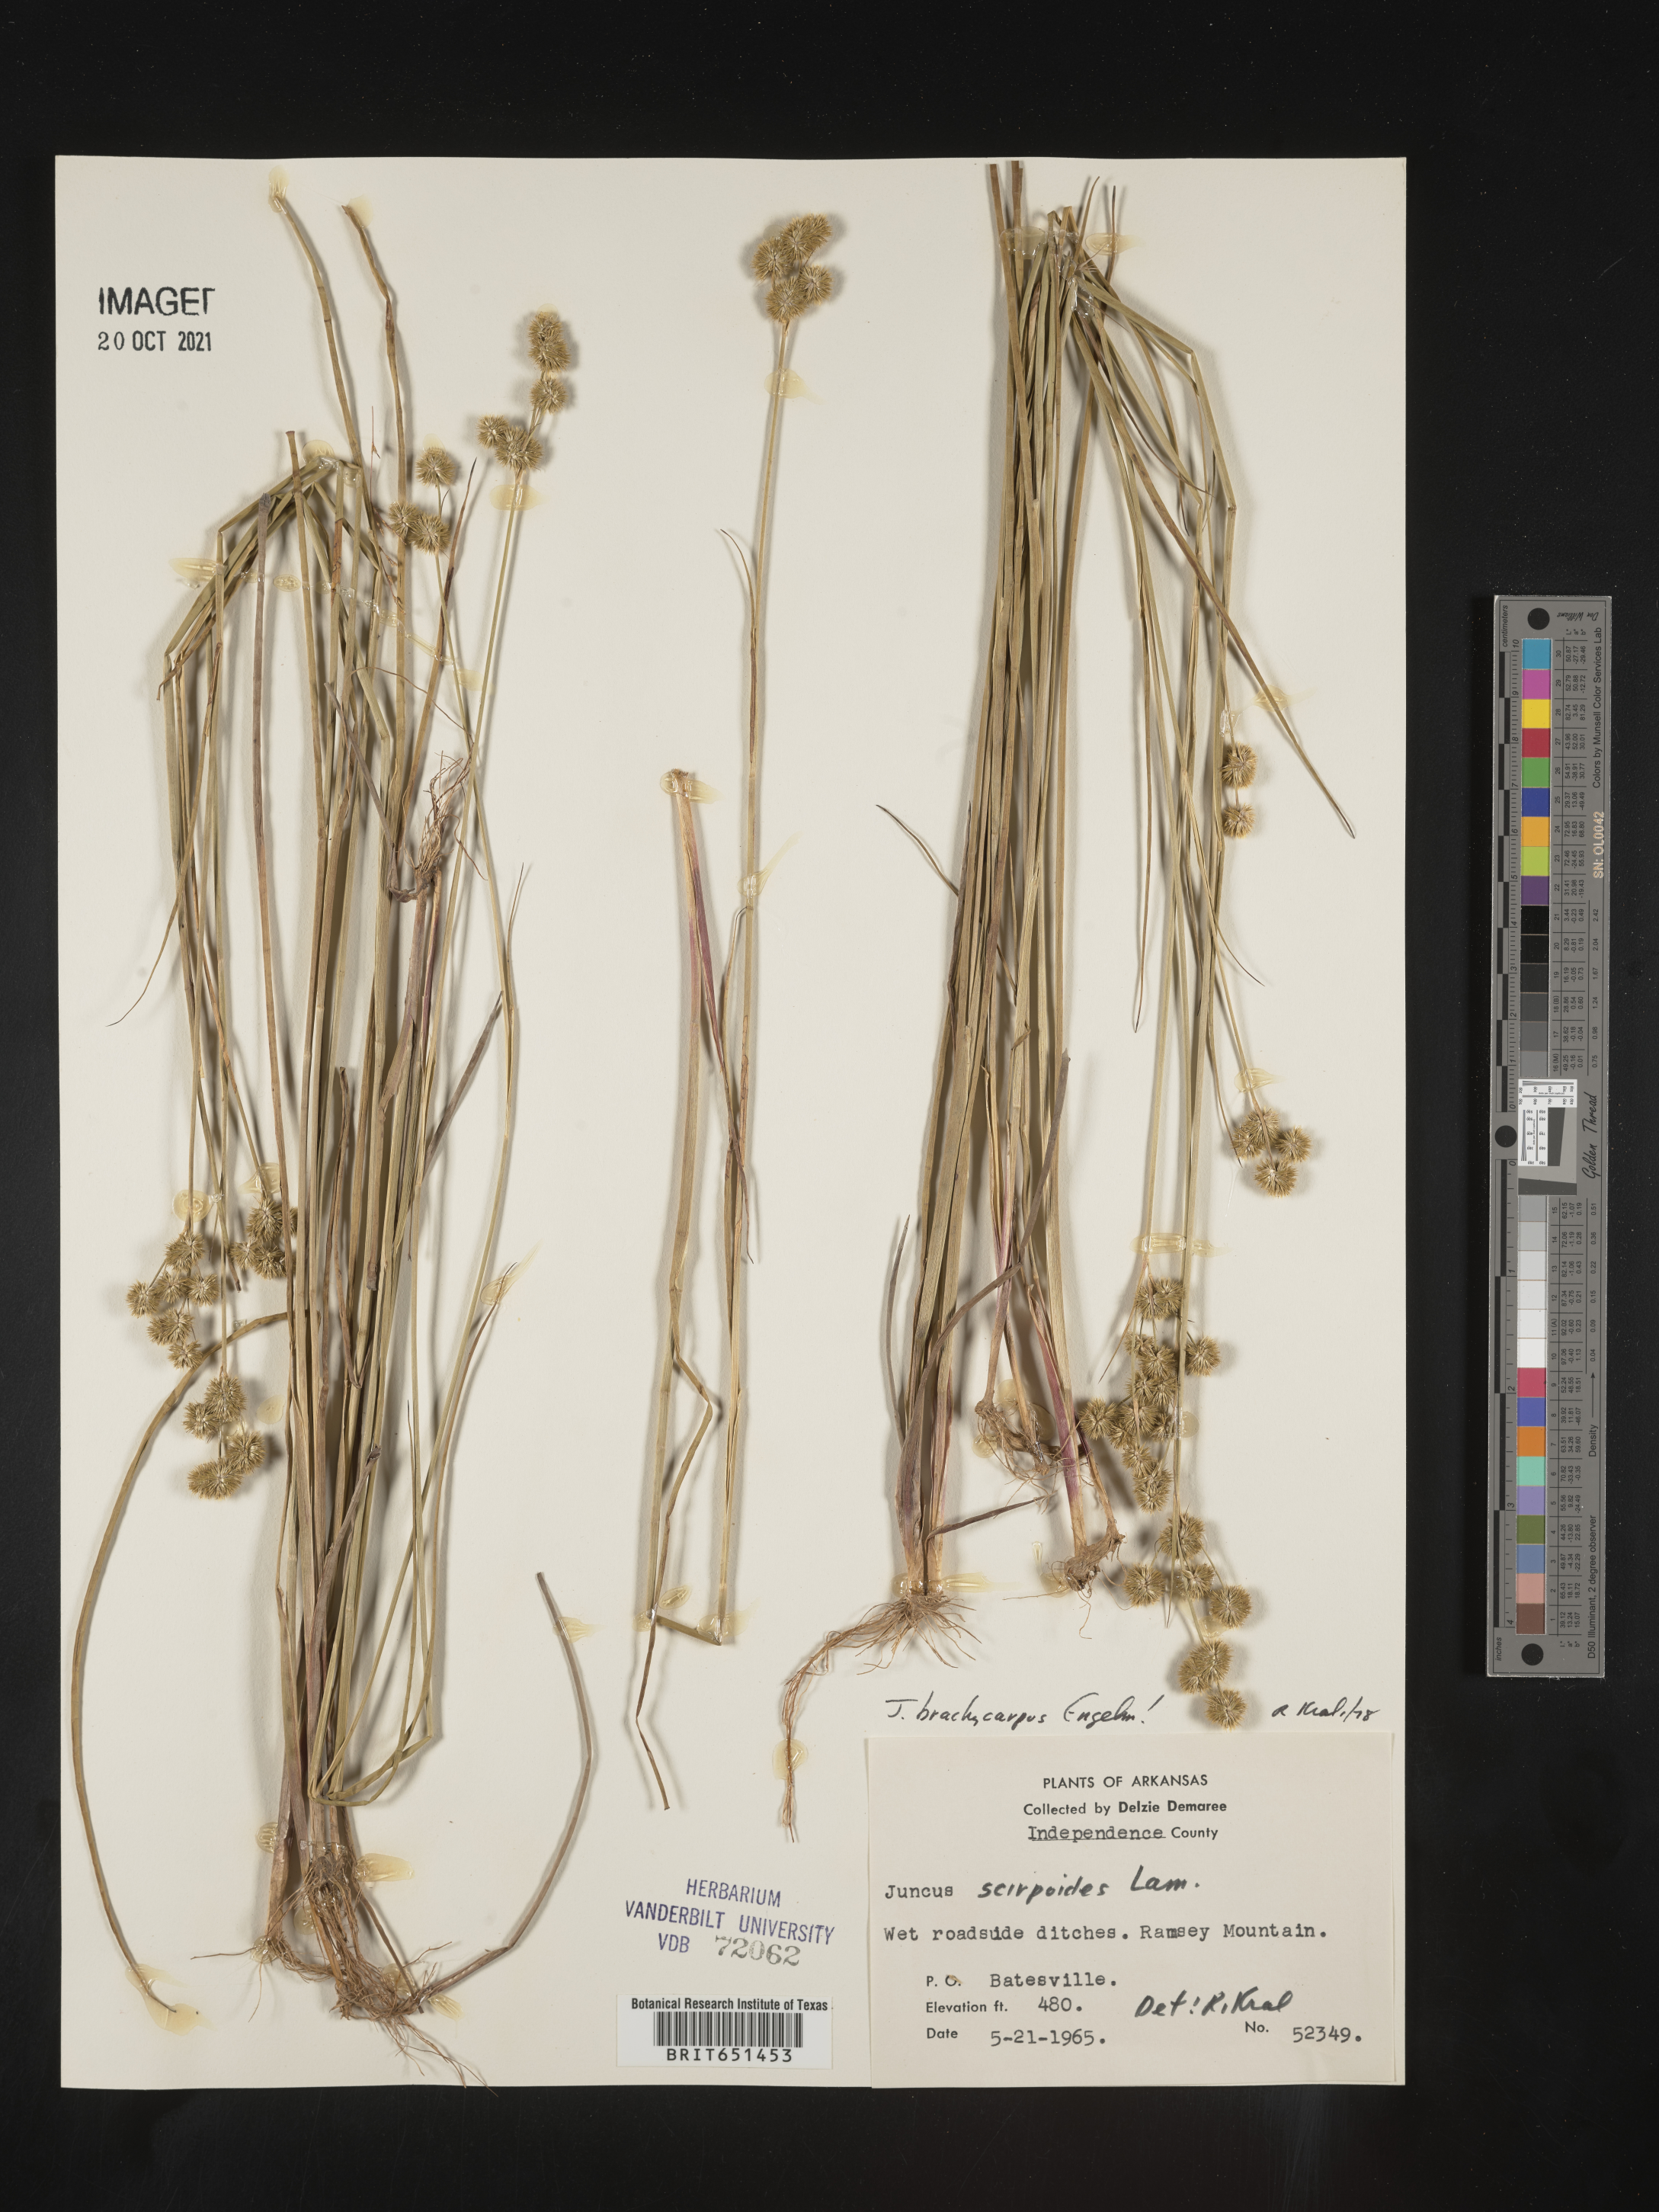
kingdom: Plantae
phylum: Tracheophyta
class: Liliopsida
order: Poales
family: Juncaceae
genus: Juncus
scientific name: Juncus brachycarpus
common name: Shore rush
